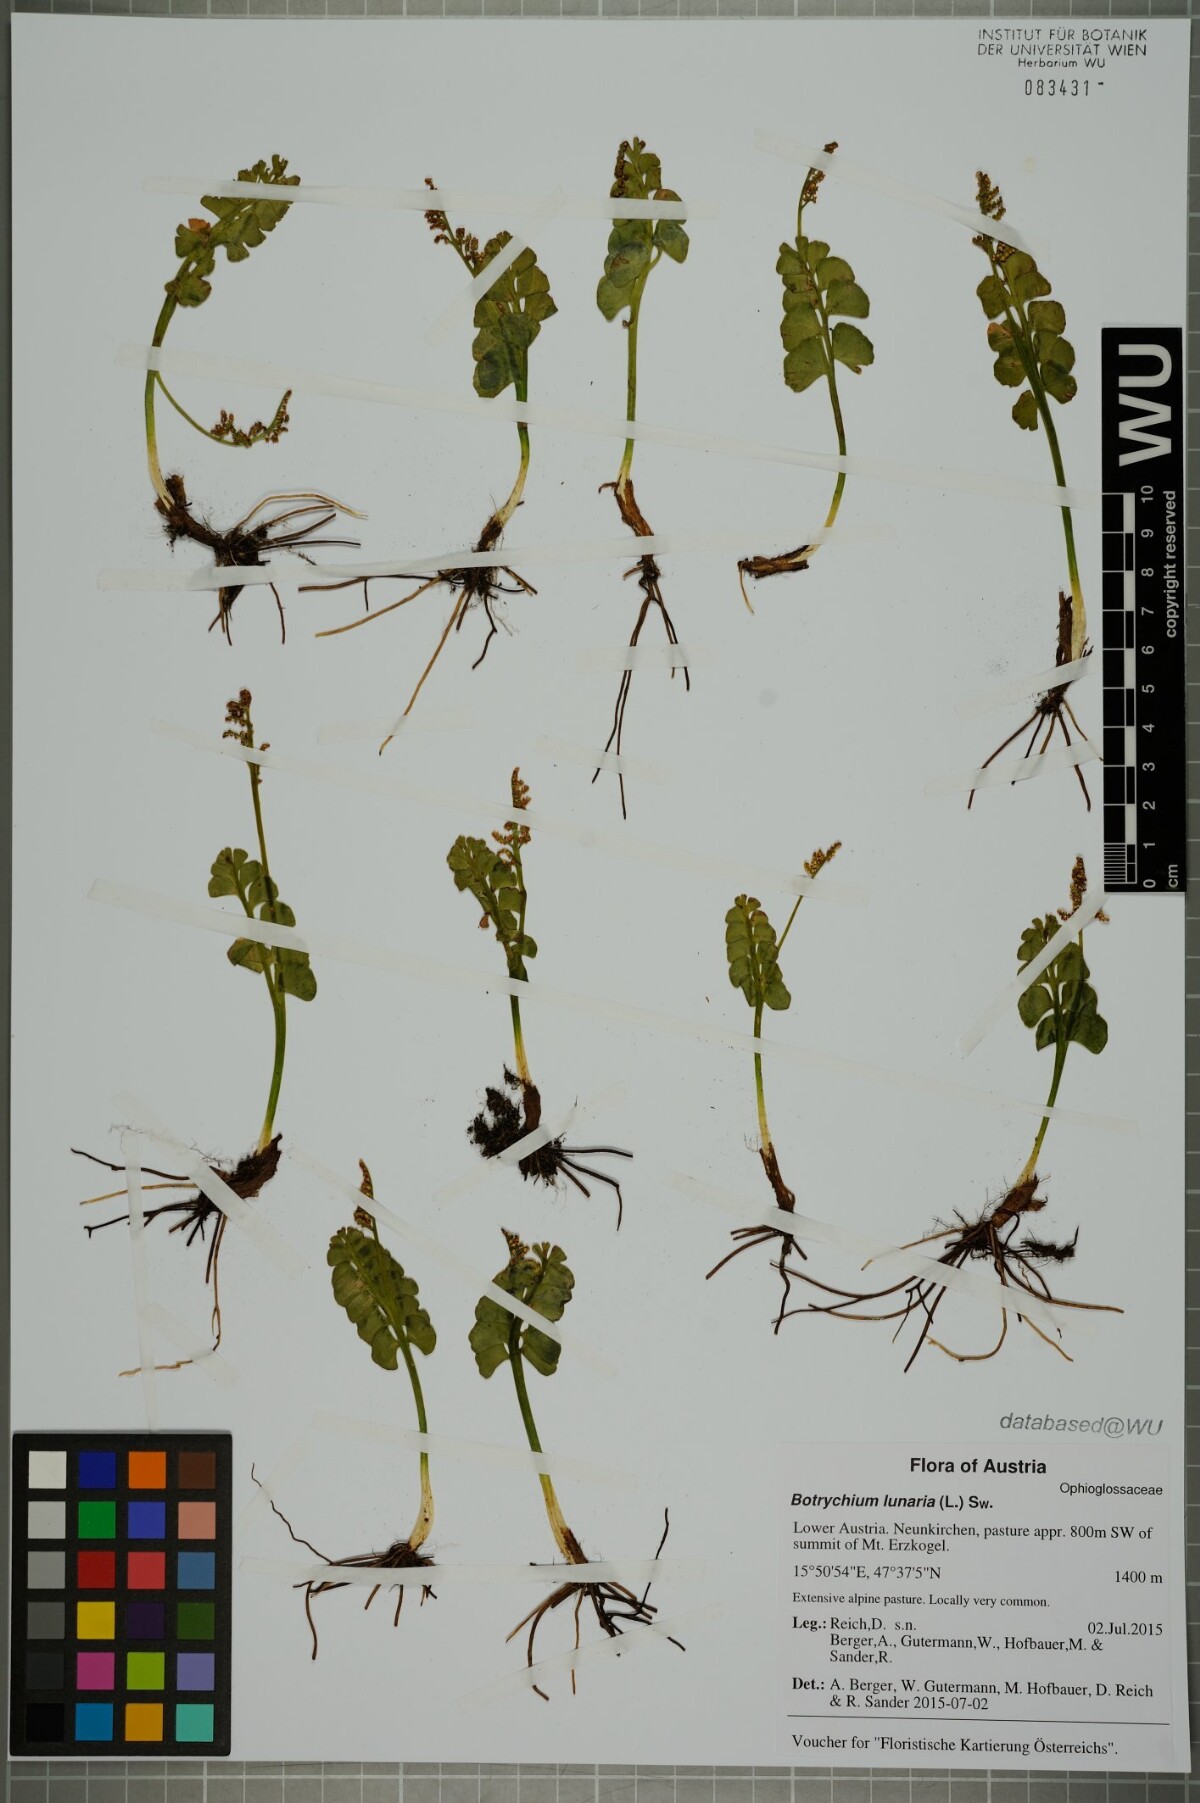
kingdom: Plantae
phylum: Tracheophyta
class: Polypodiopsida
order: Ophioglossales
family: Ophioglossaceae
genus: Botrychium
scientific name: Botrychium lunaria
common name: Moonwort
